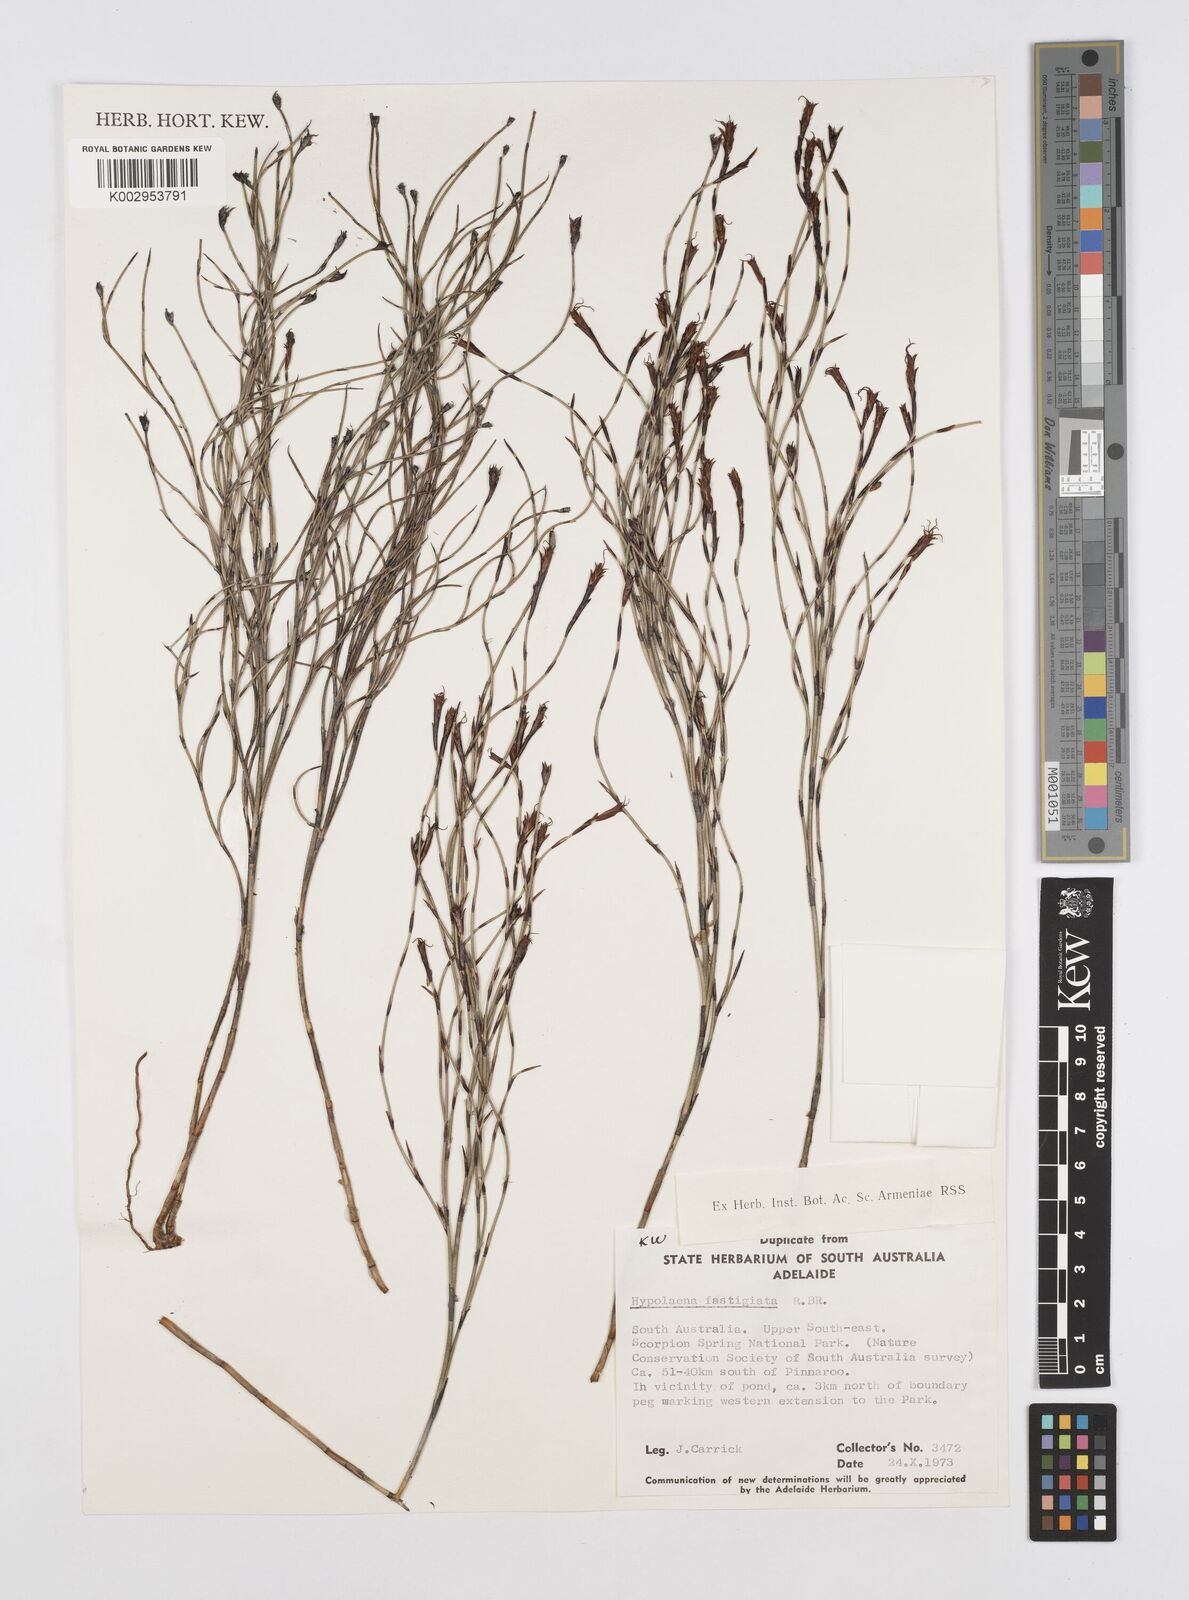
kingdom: Plantae
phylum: Tracheophyta
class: Liliopsida
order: Poales
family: Restionaceae
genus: Hypolaena
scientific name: Hypolaena fastigiata
